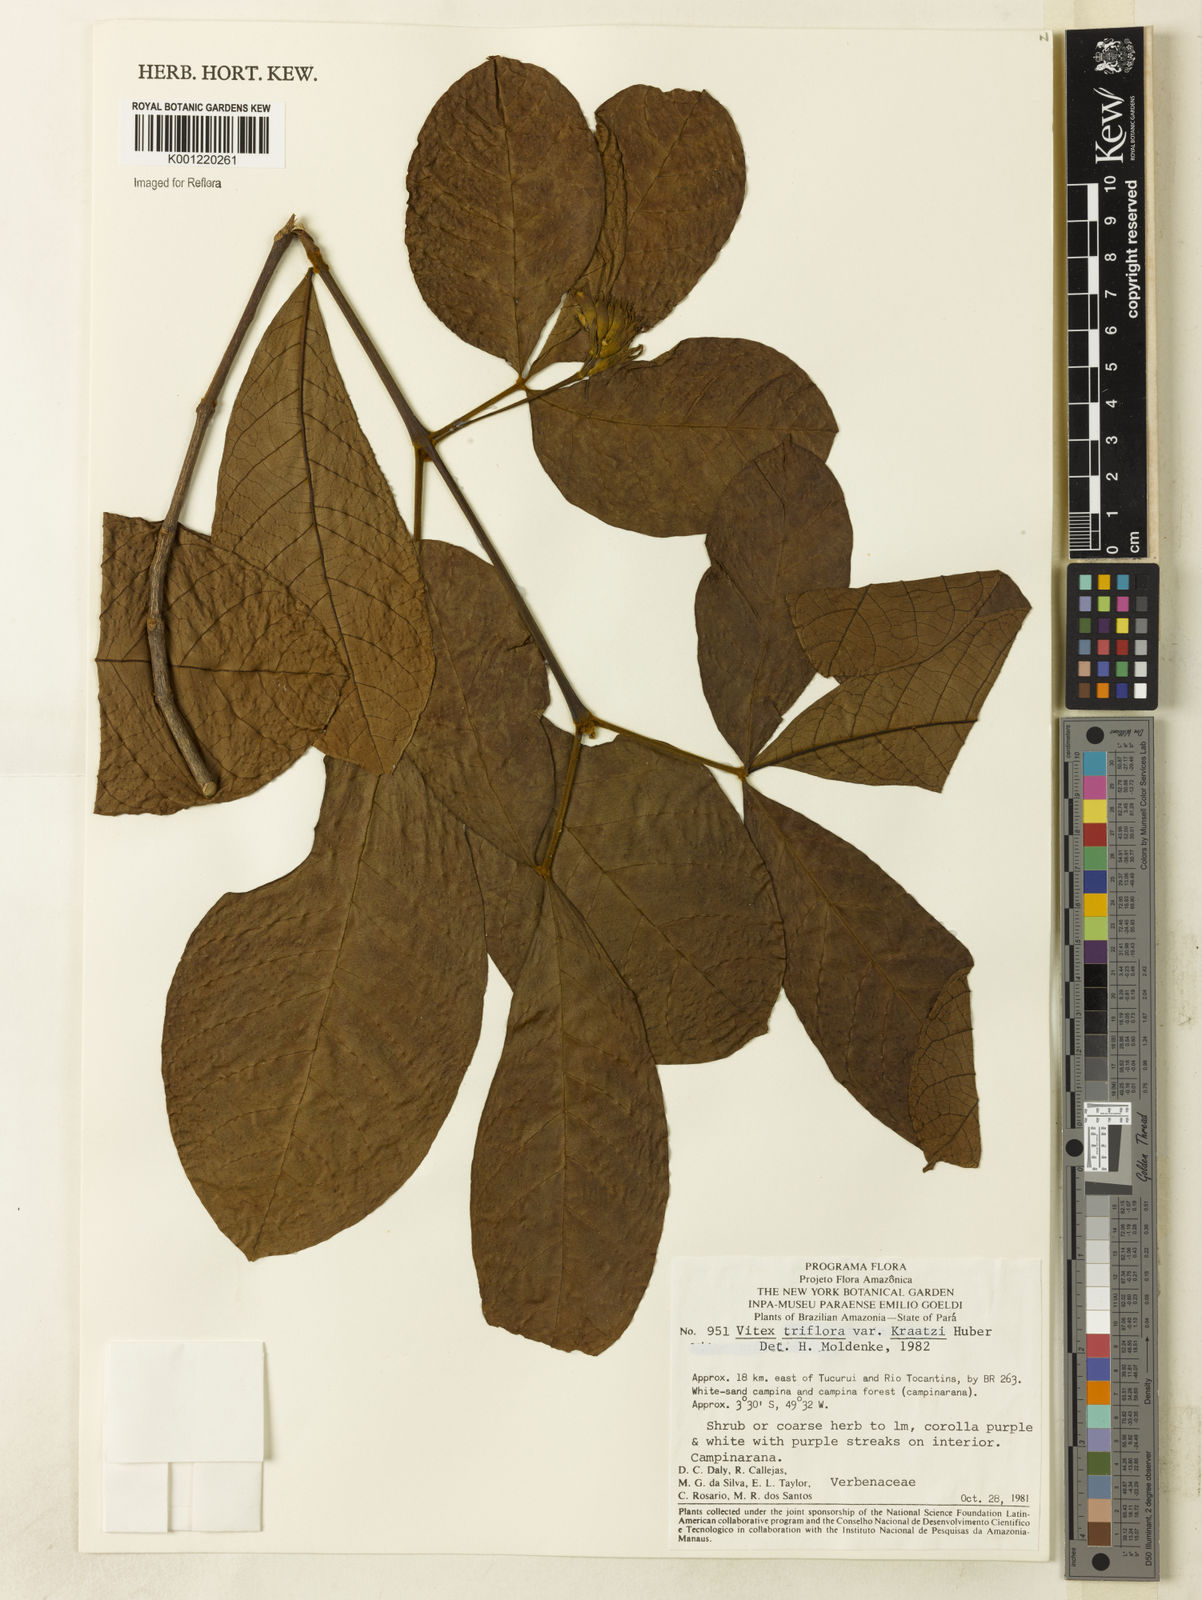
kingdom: Plantae
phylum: Tracheophyta
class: Magnoliopsida
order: Lamiales
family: Lamiaceae
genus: Vitex
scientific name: Vitex triflora
